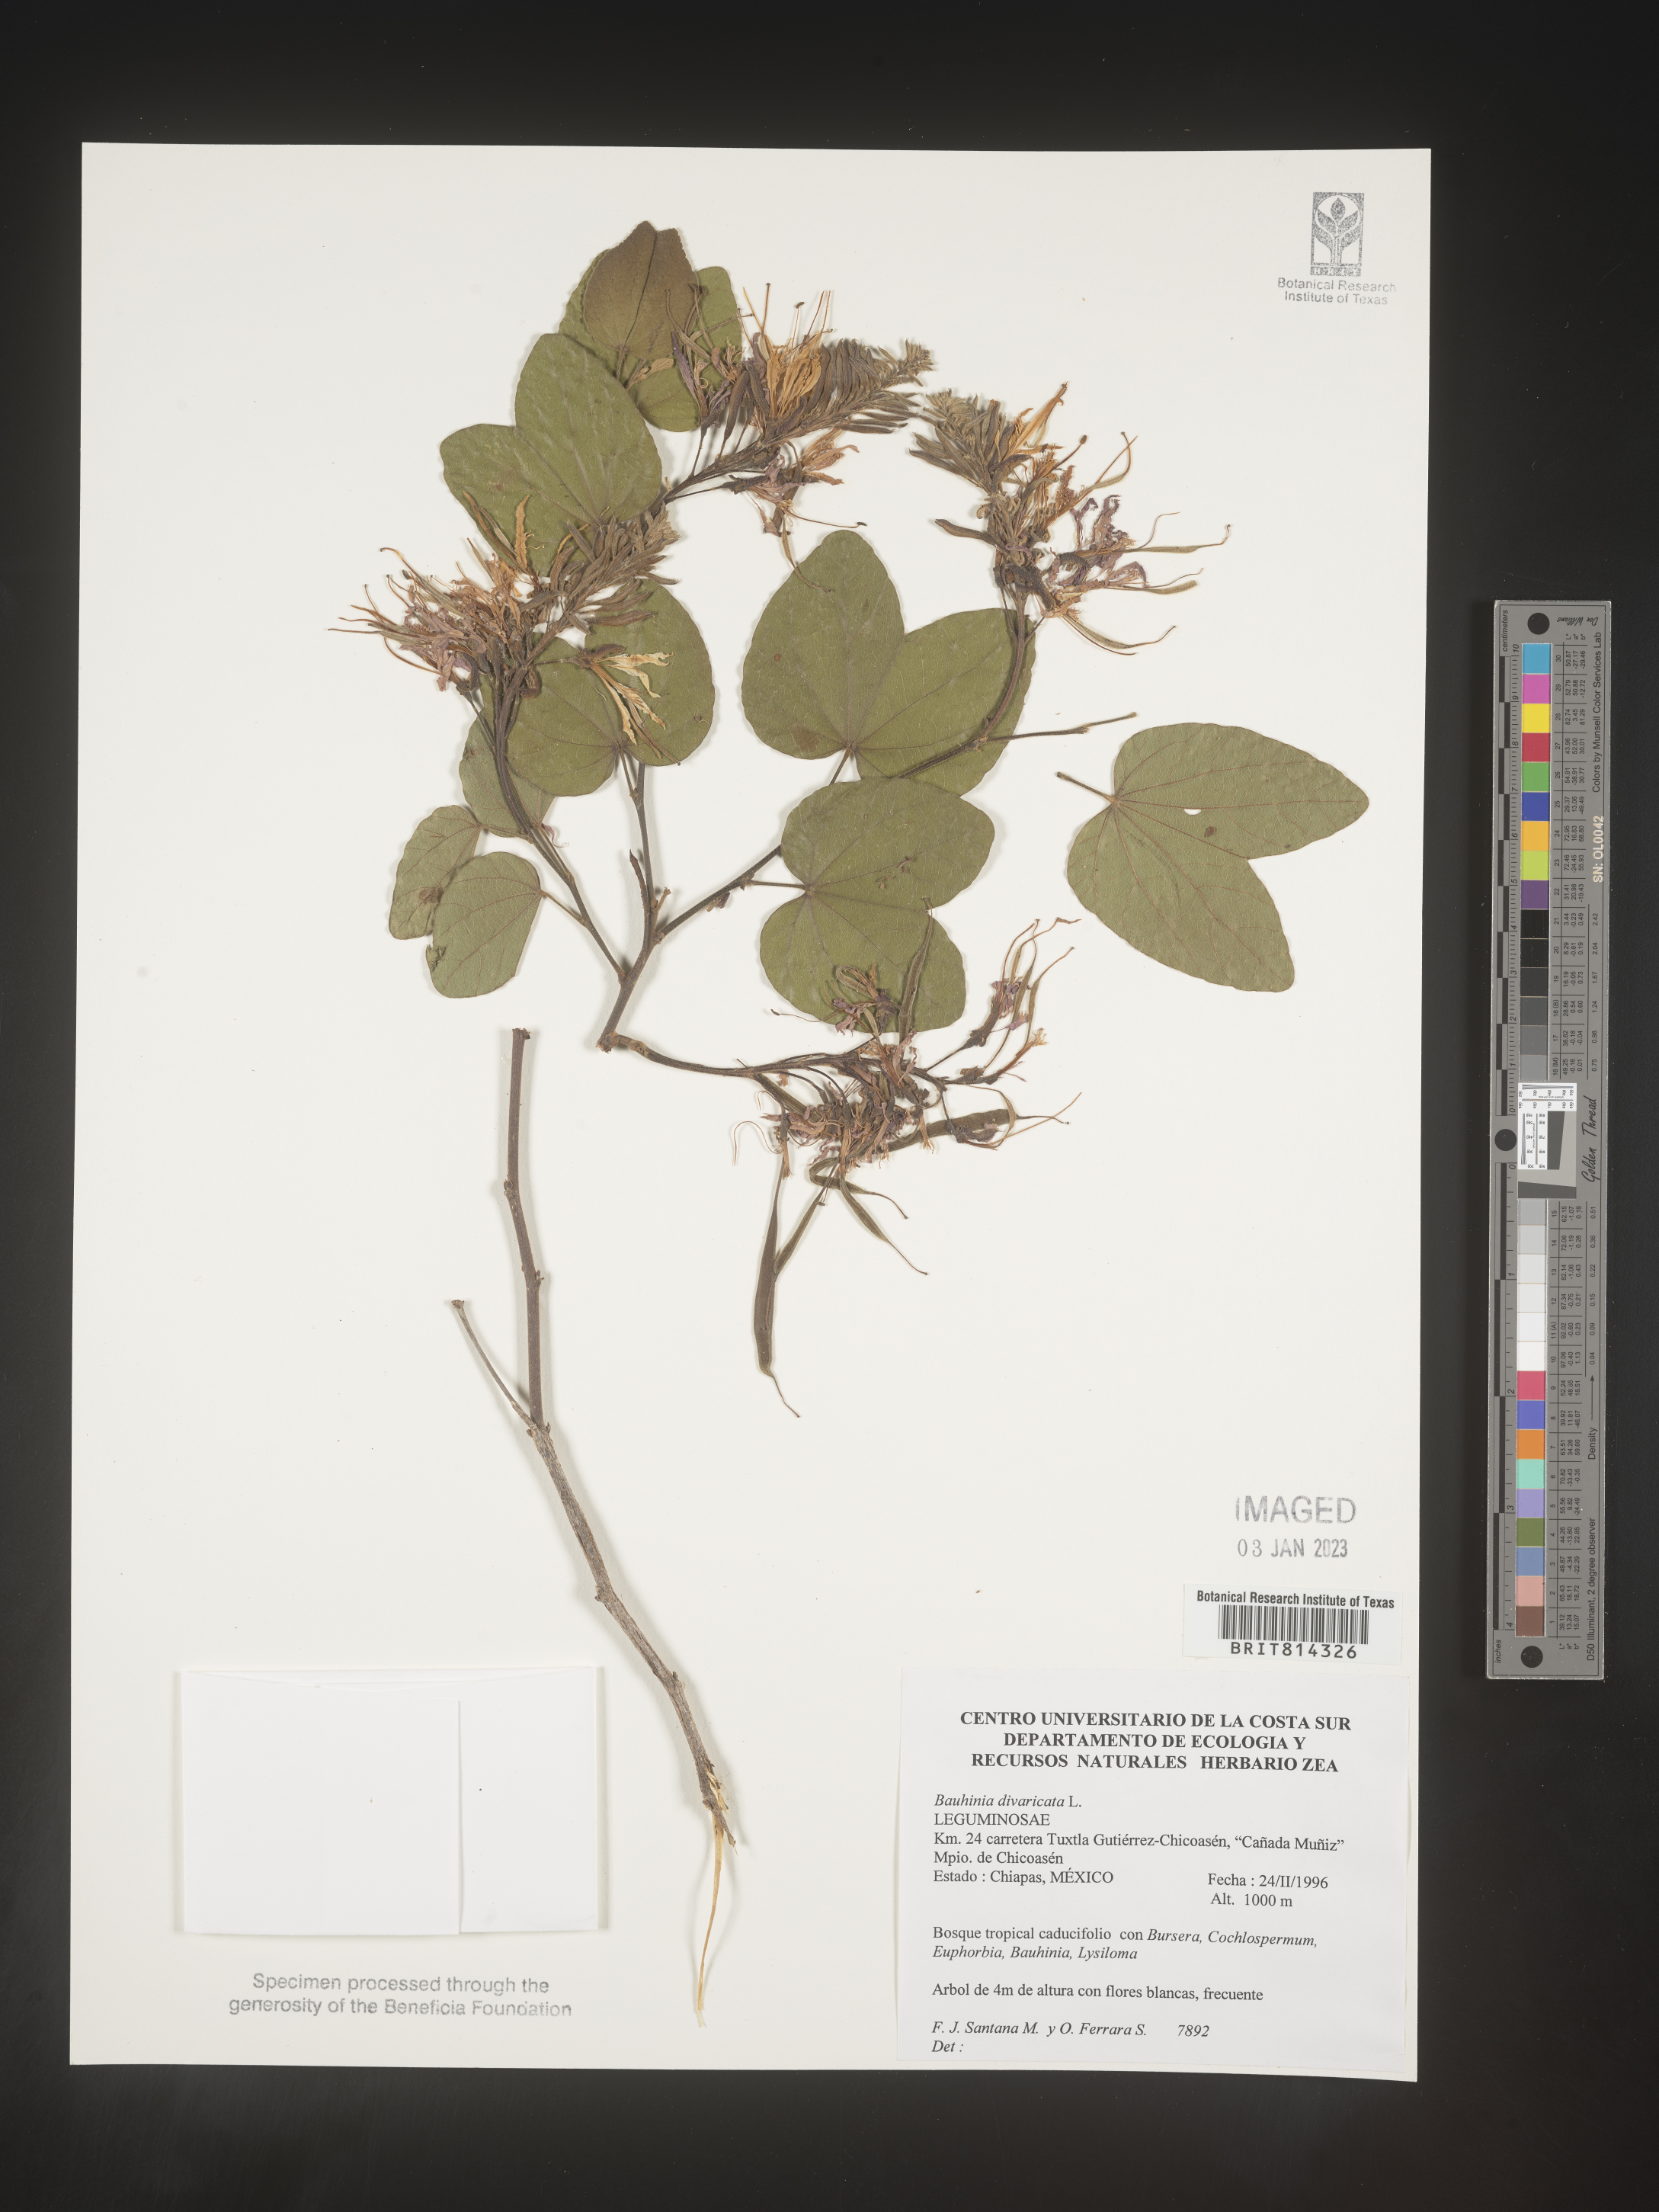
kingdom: Plantae
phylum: Tracheophyta
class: Magnoliopsida
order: Fabales
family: Fabaceae
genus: Bauhinia
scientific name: Bauhinia
